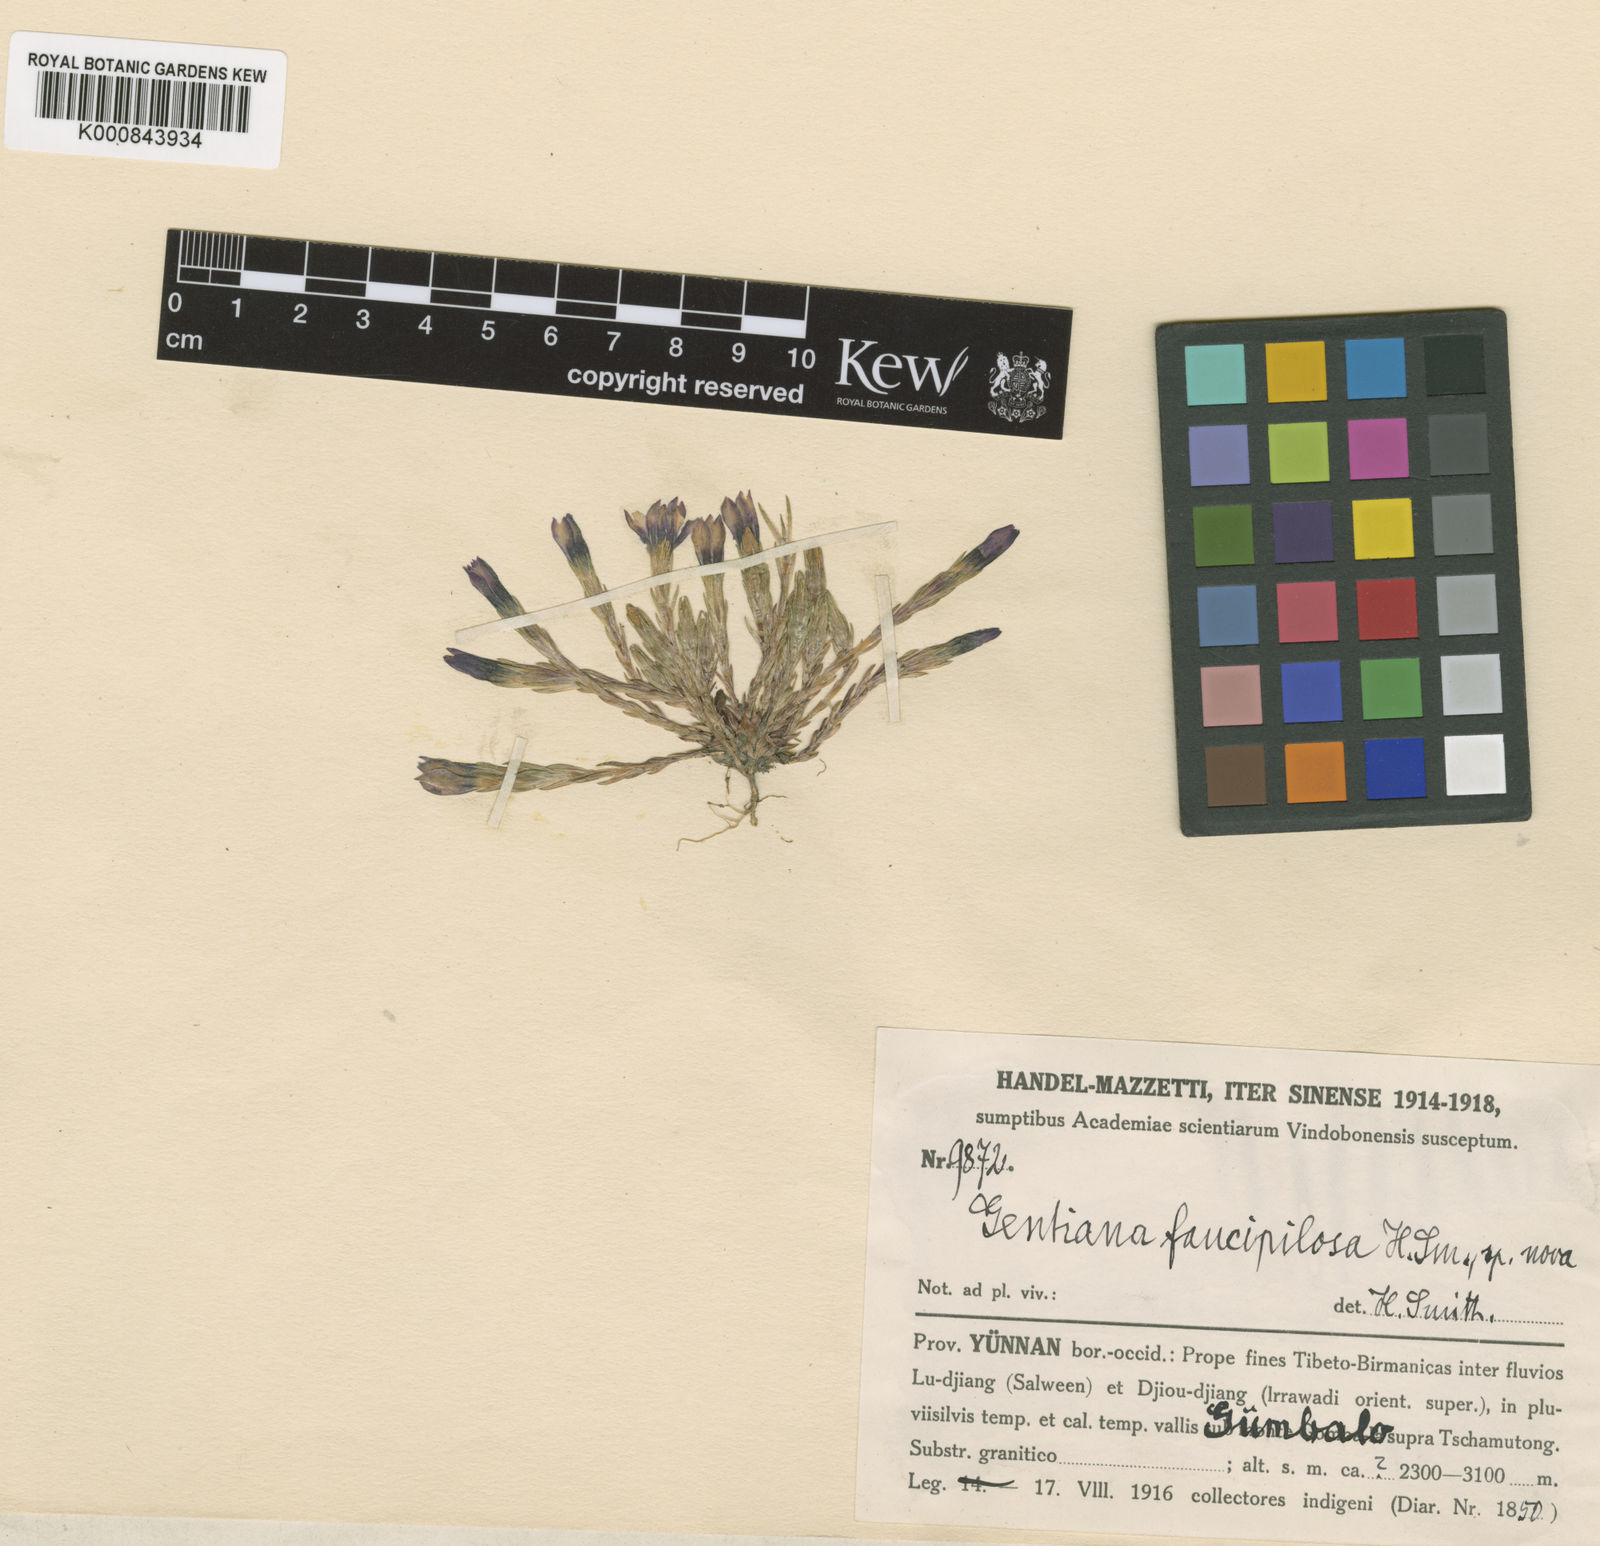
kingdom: Plantae
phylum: Tracheophyta
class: Magnoliopsida
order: Gentianales
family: Gentianaceae
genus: Gentiana
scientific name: Gentiana faucipilosa
